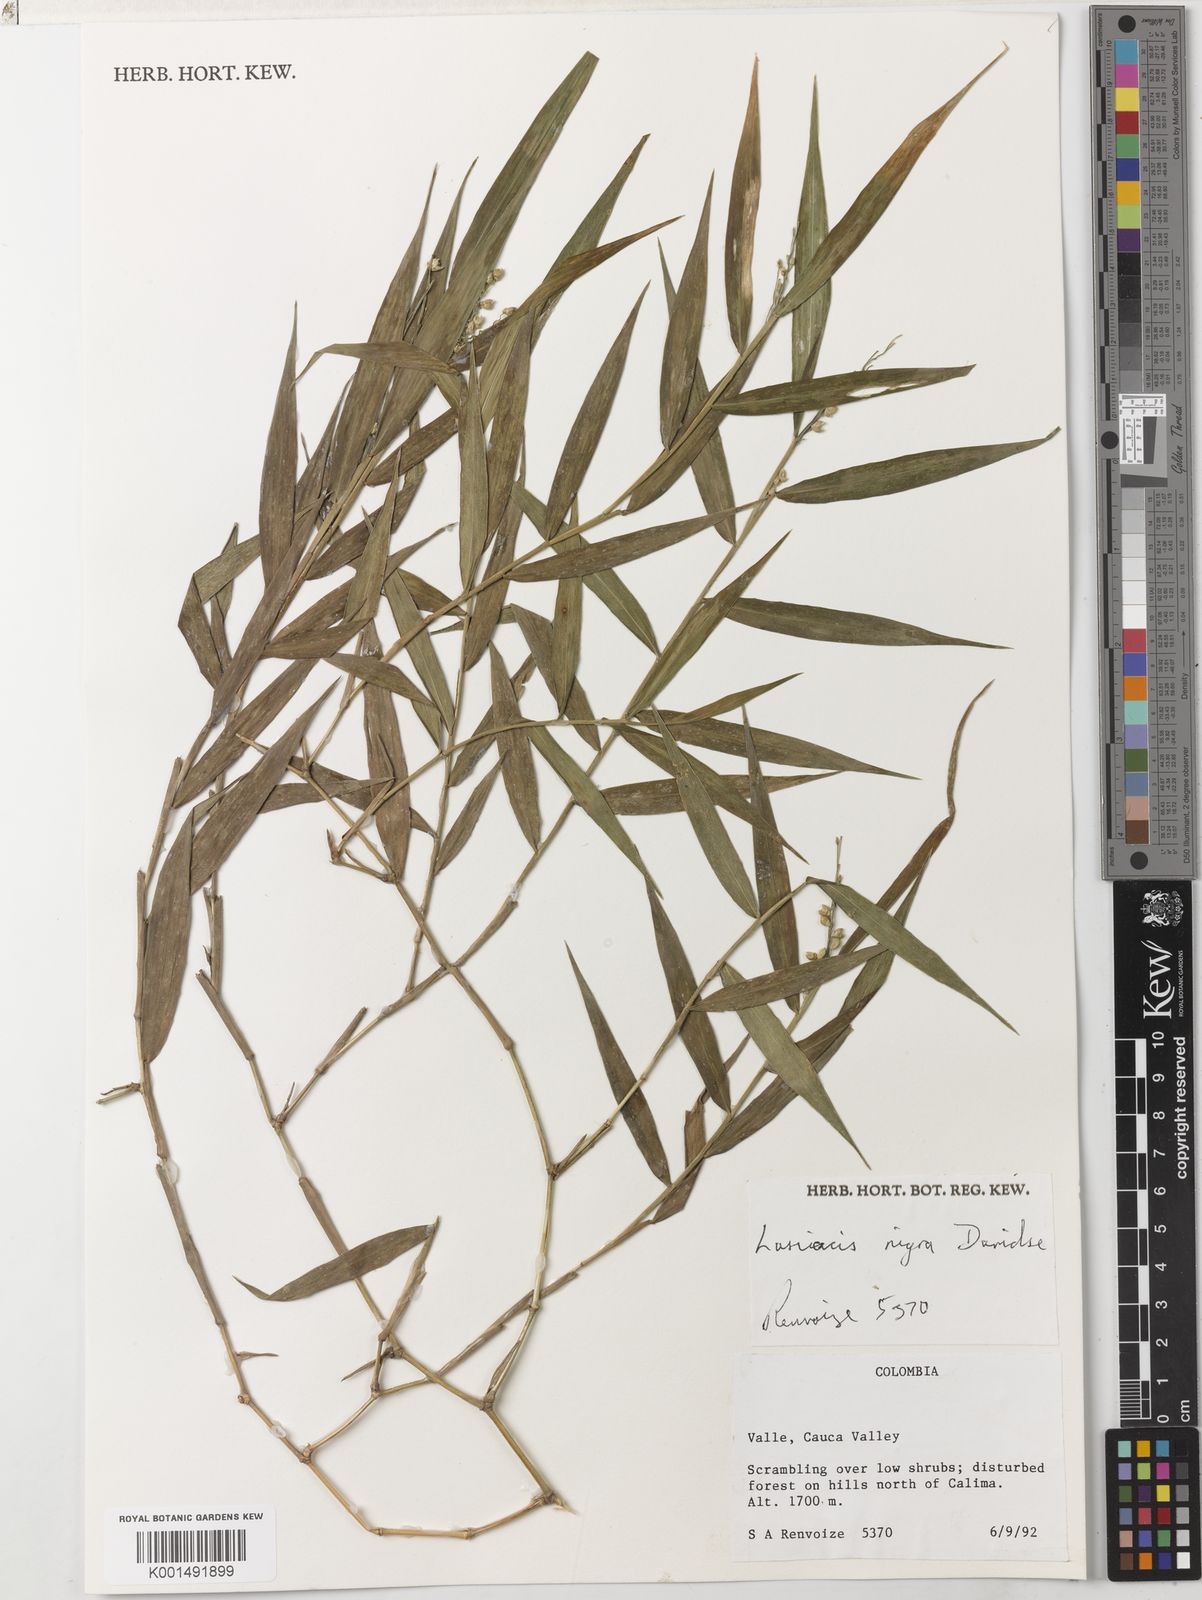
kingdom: Plantae
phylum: Tracheophyta
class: Liliopsida
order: Poales
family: Poaceae
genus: Lasiacis
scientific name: Lasiacis nigra
